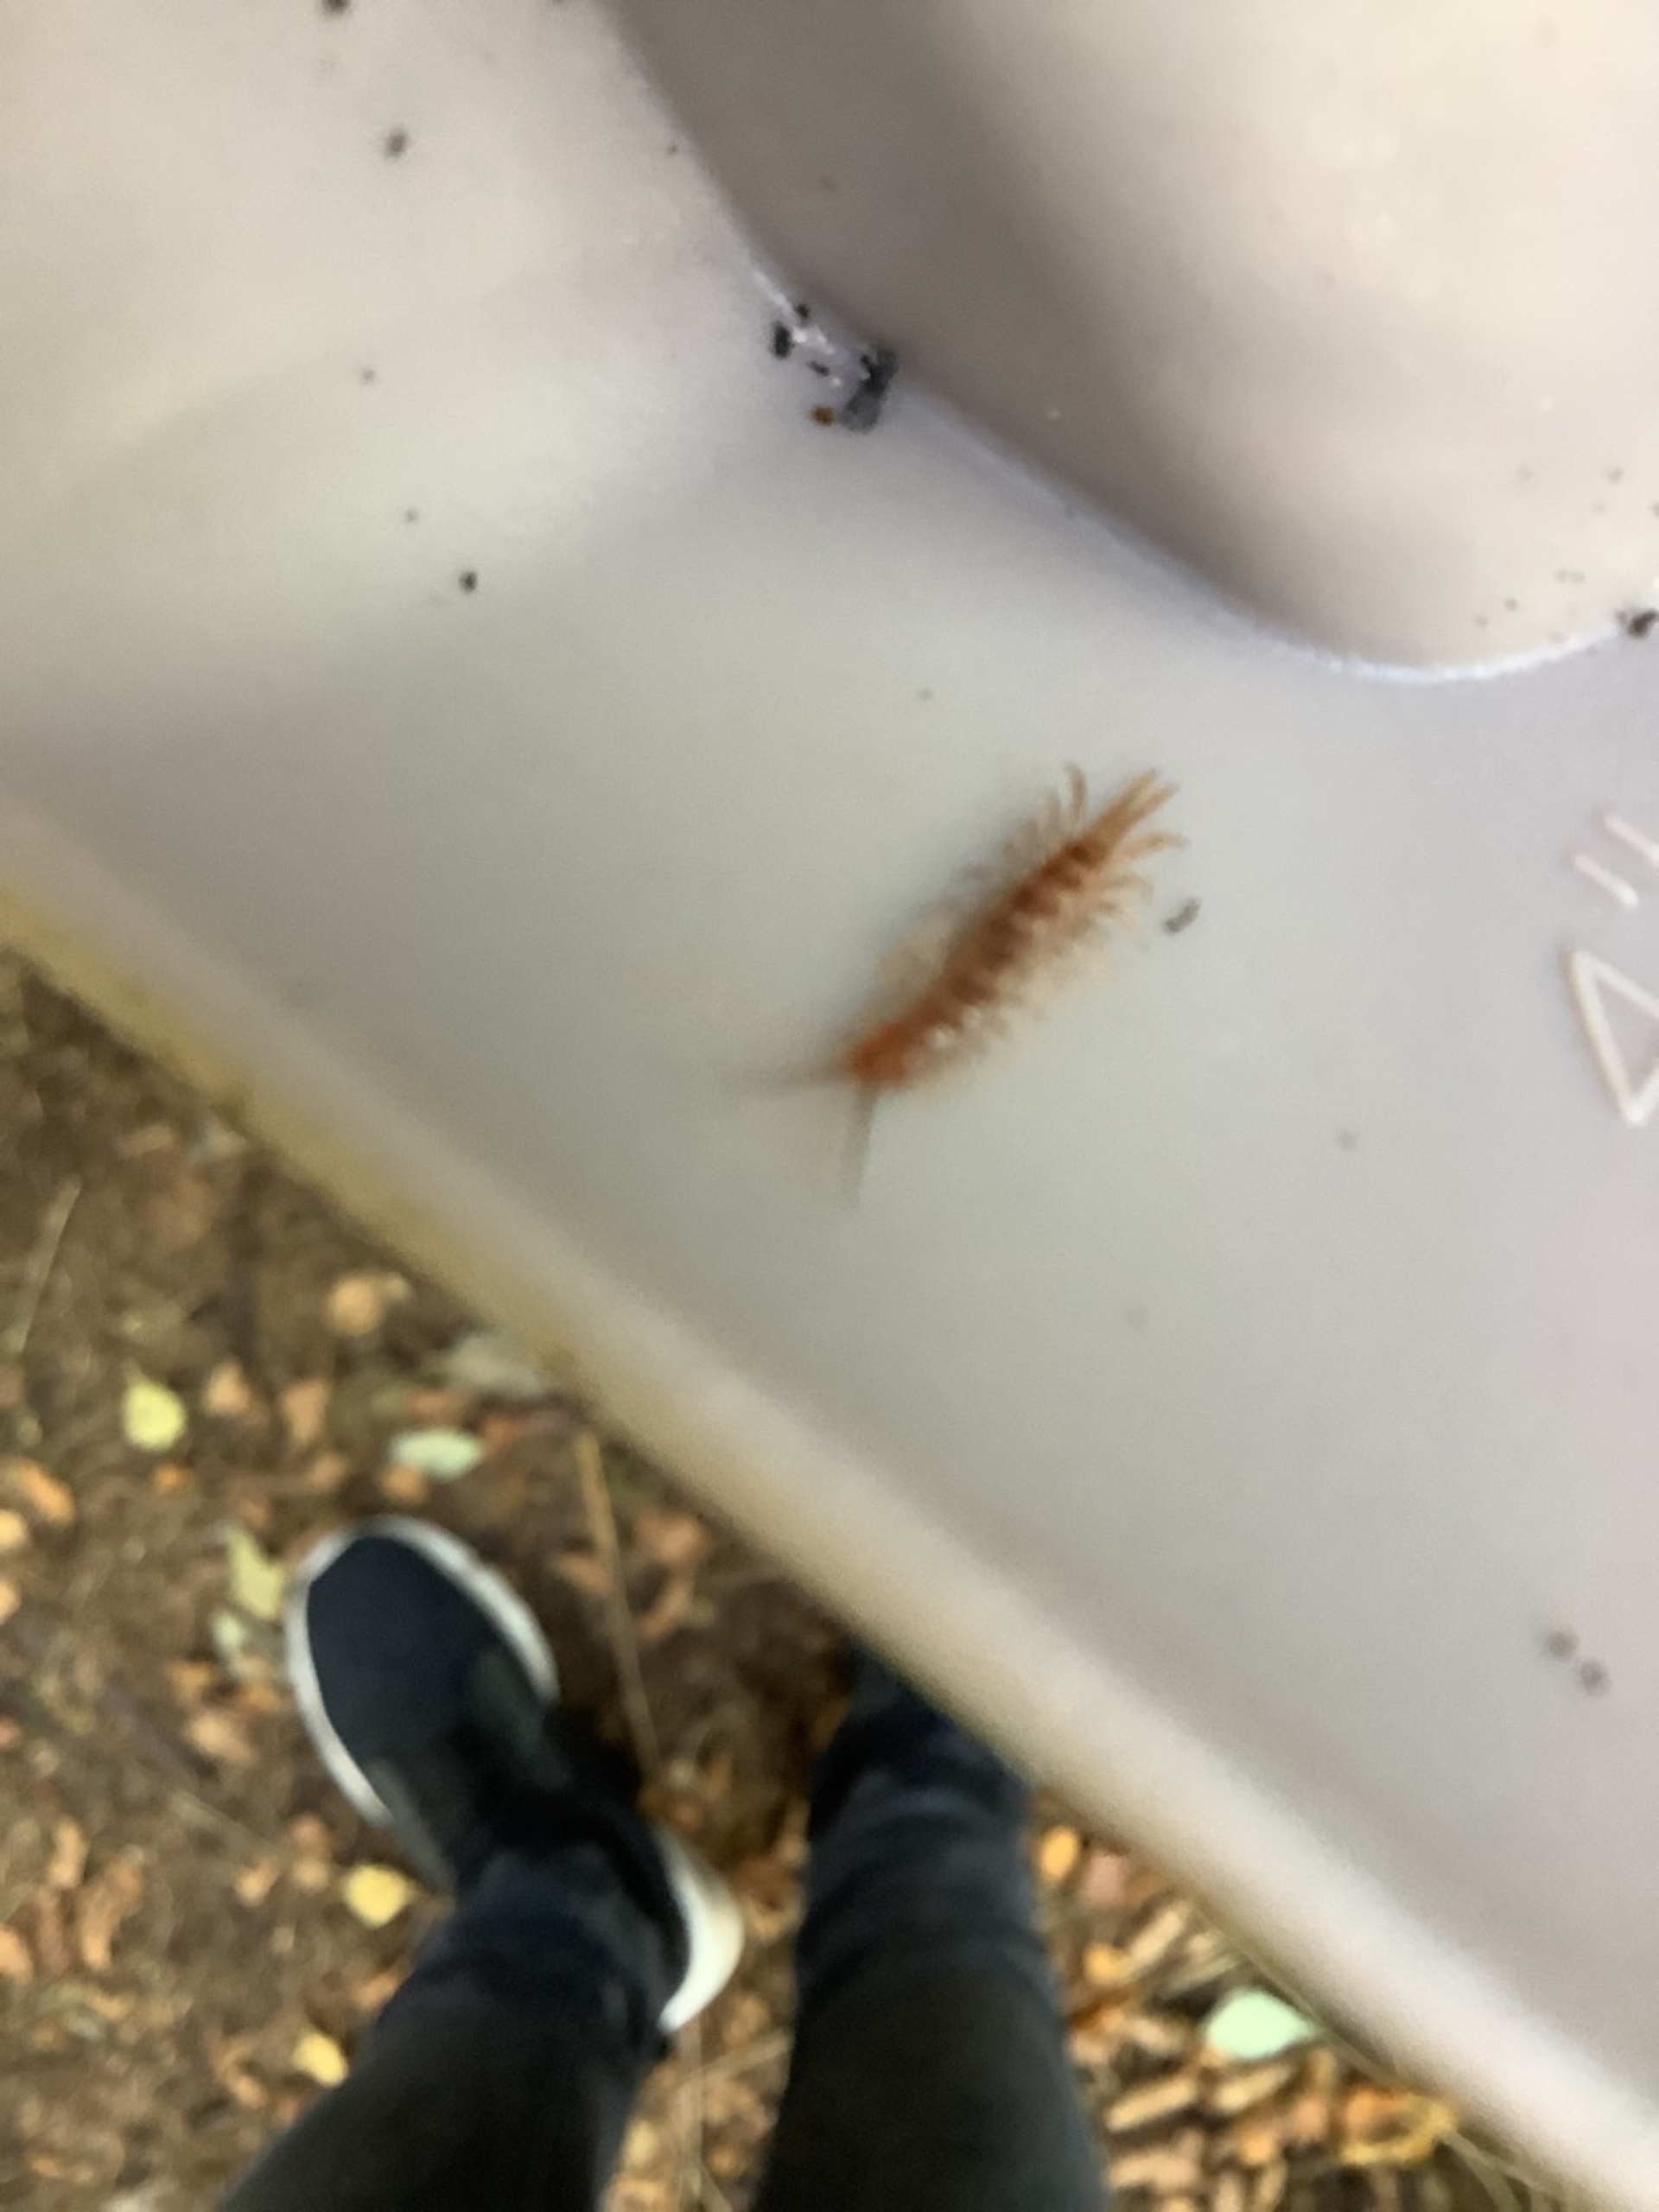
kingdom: Animalia
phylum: Arthropoda
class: Chilopoda
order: Lithobiomorpha
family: Lithobiidae
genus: Lithobius
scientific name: Lithobius
